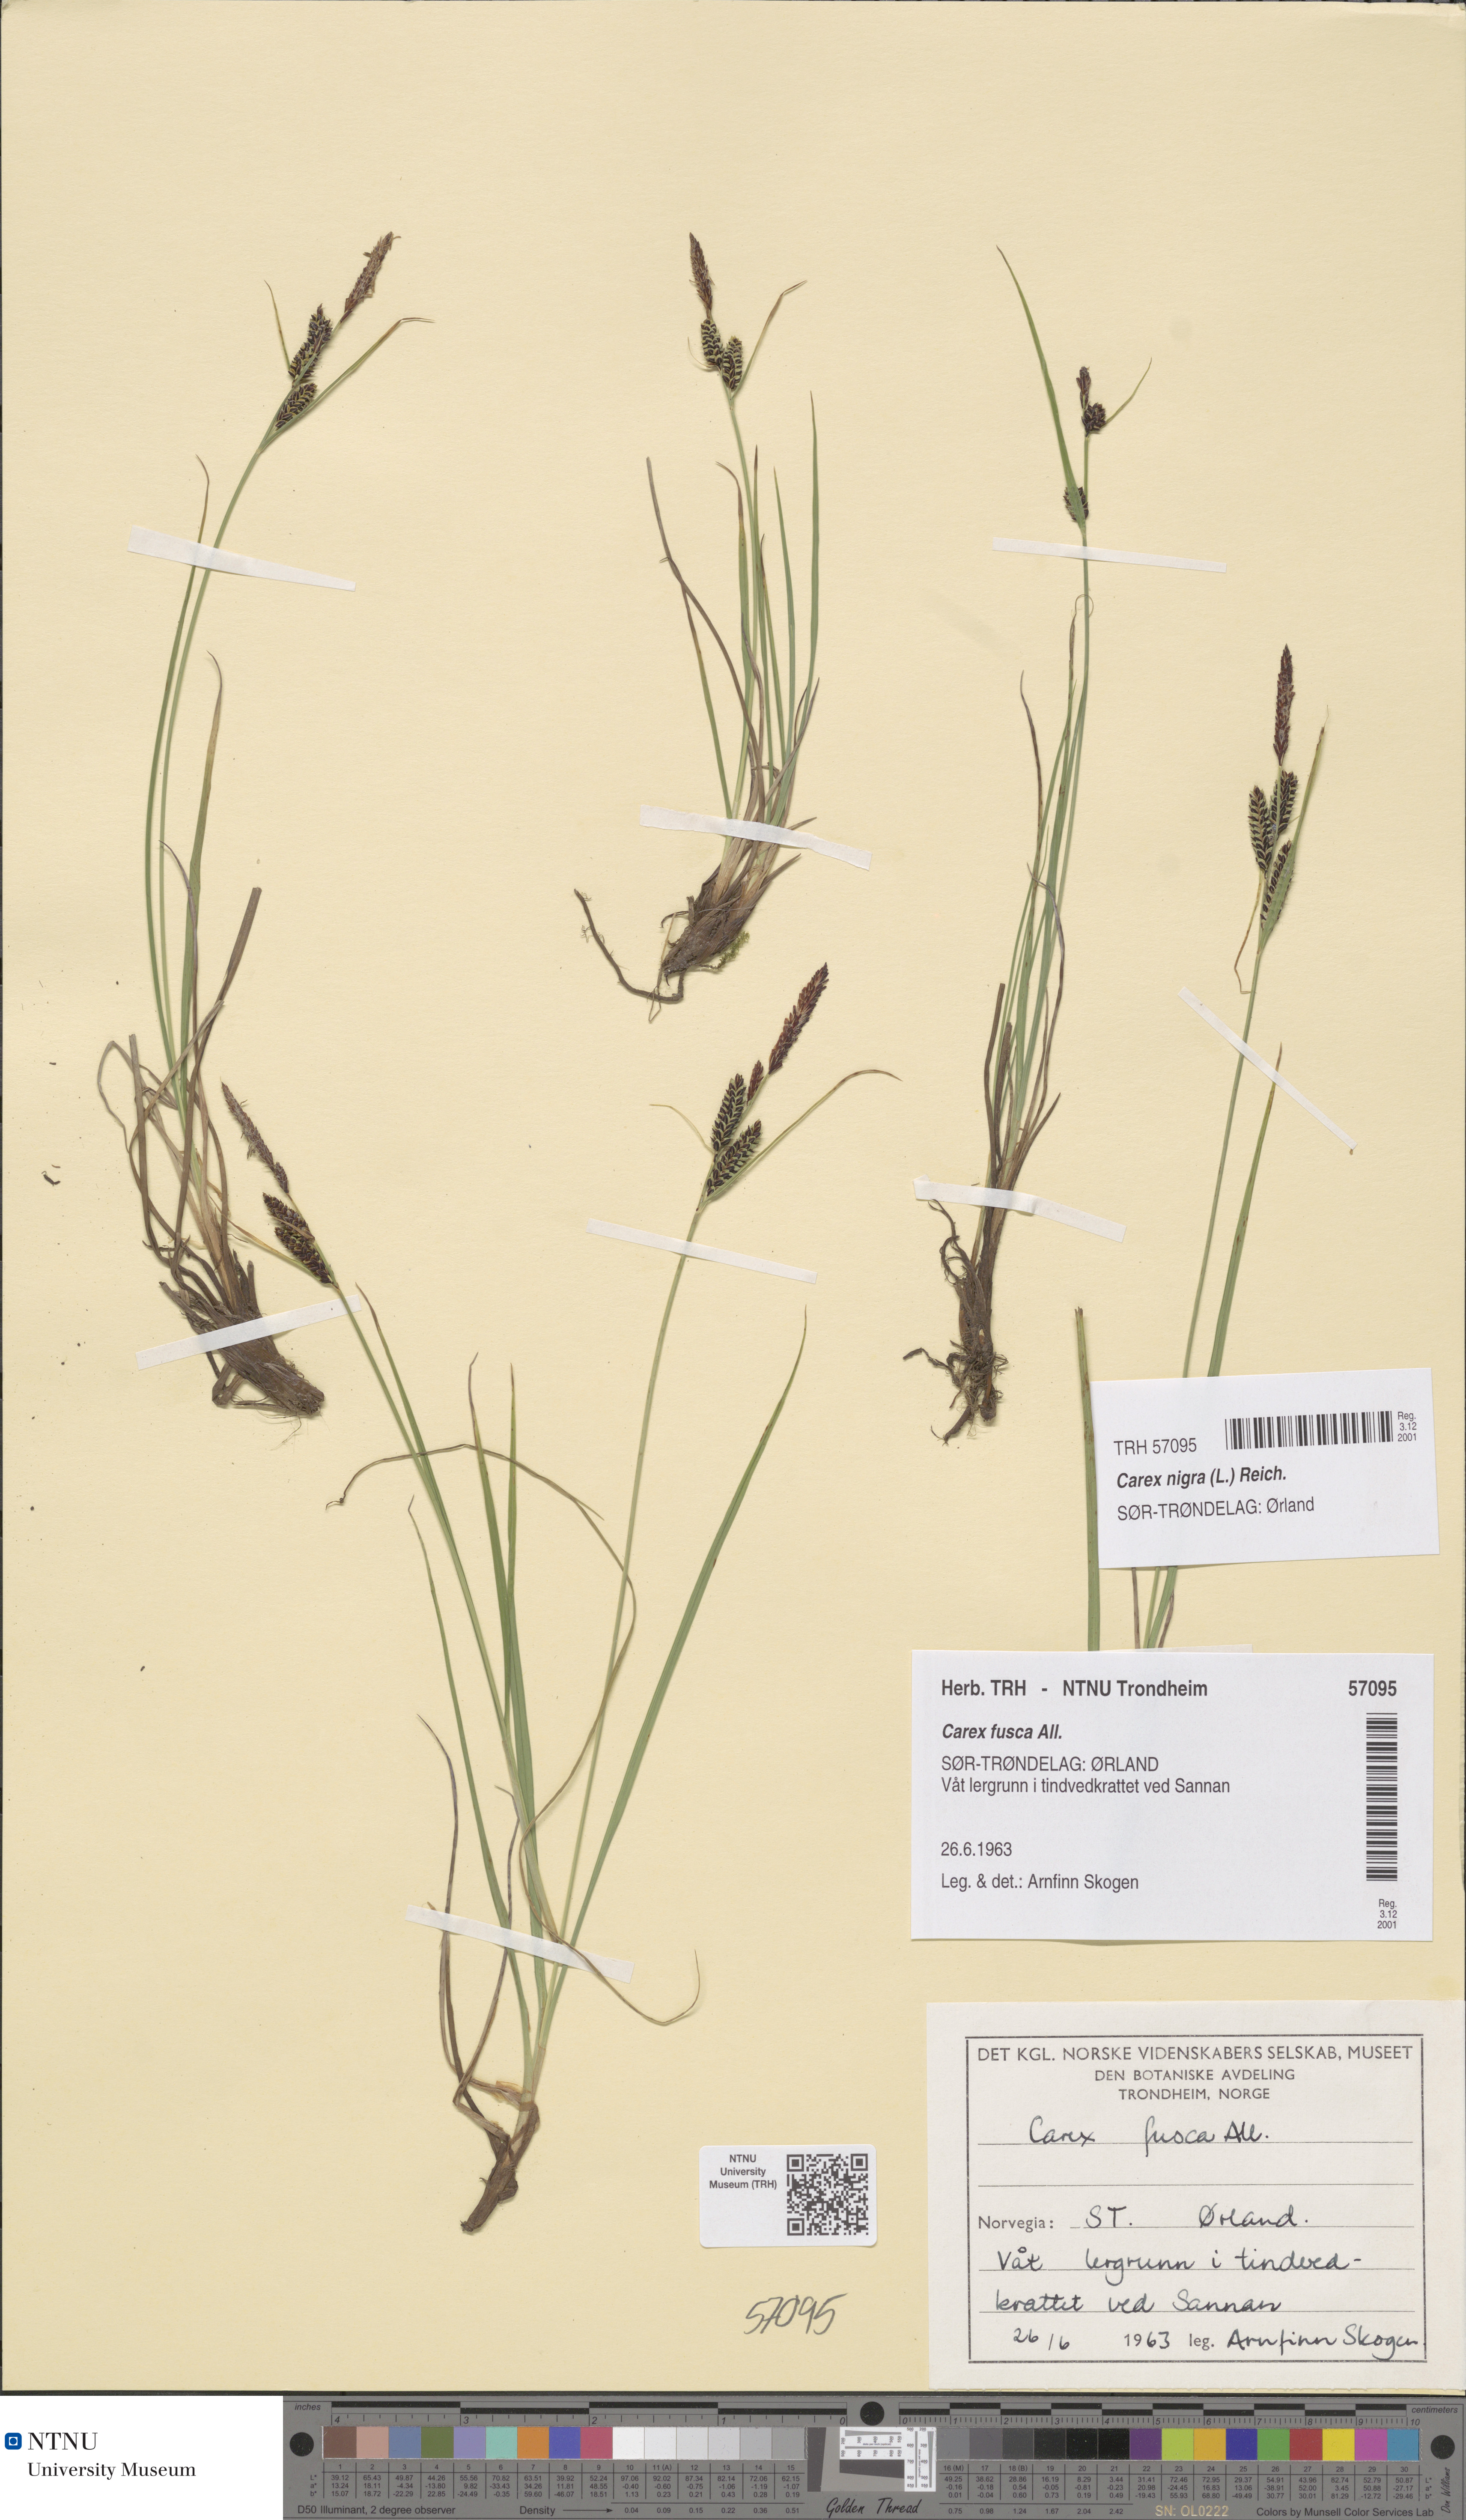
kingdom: Plantae
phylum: Tracheophyta
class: Liliopsida
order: Poales
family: Cyperaceae
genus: Carex
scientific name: Carex nigra
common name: Common sedge
